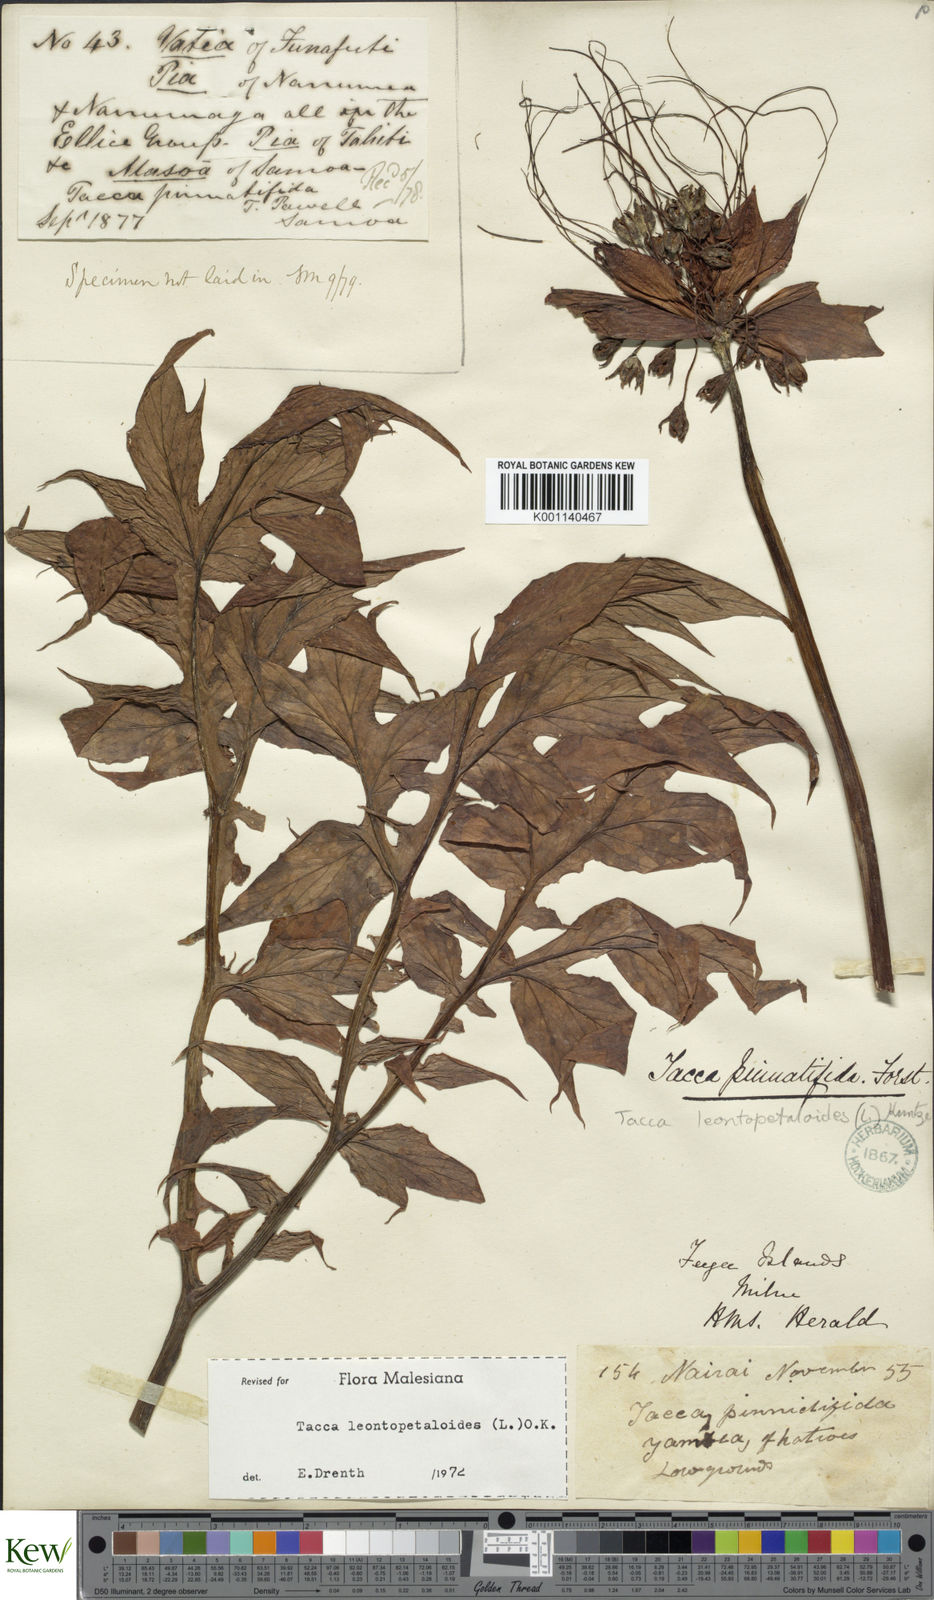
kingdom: Plantae
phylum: Tracheophyta
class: Liliopsida
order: Dioscoreales
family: Dioscoreaceae
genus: Tacca
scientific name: Tacca leontopetaloides
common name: Arrowroot
